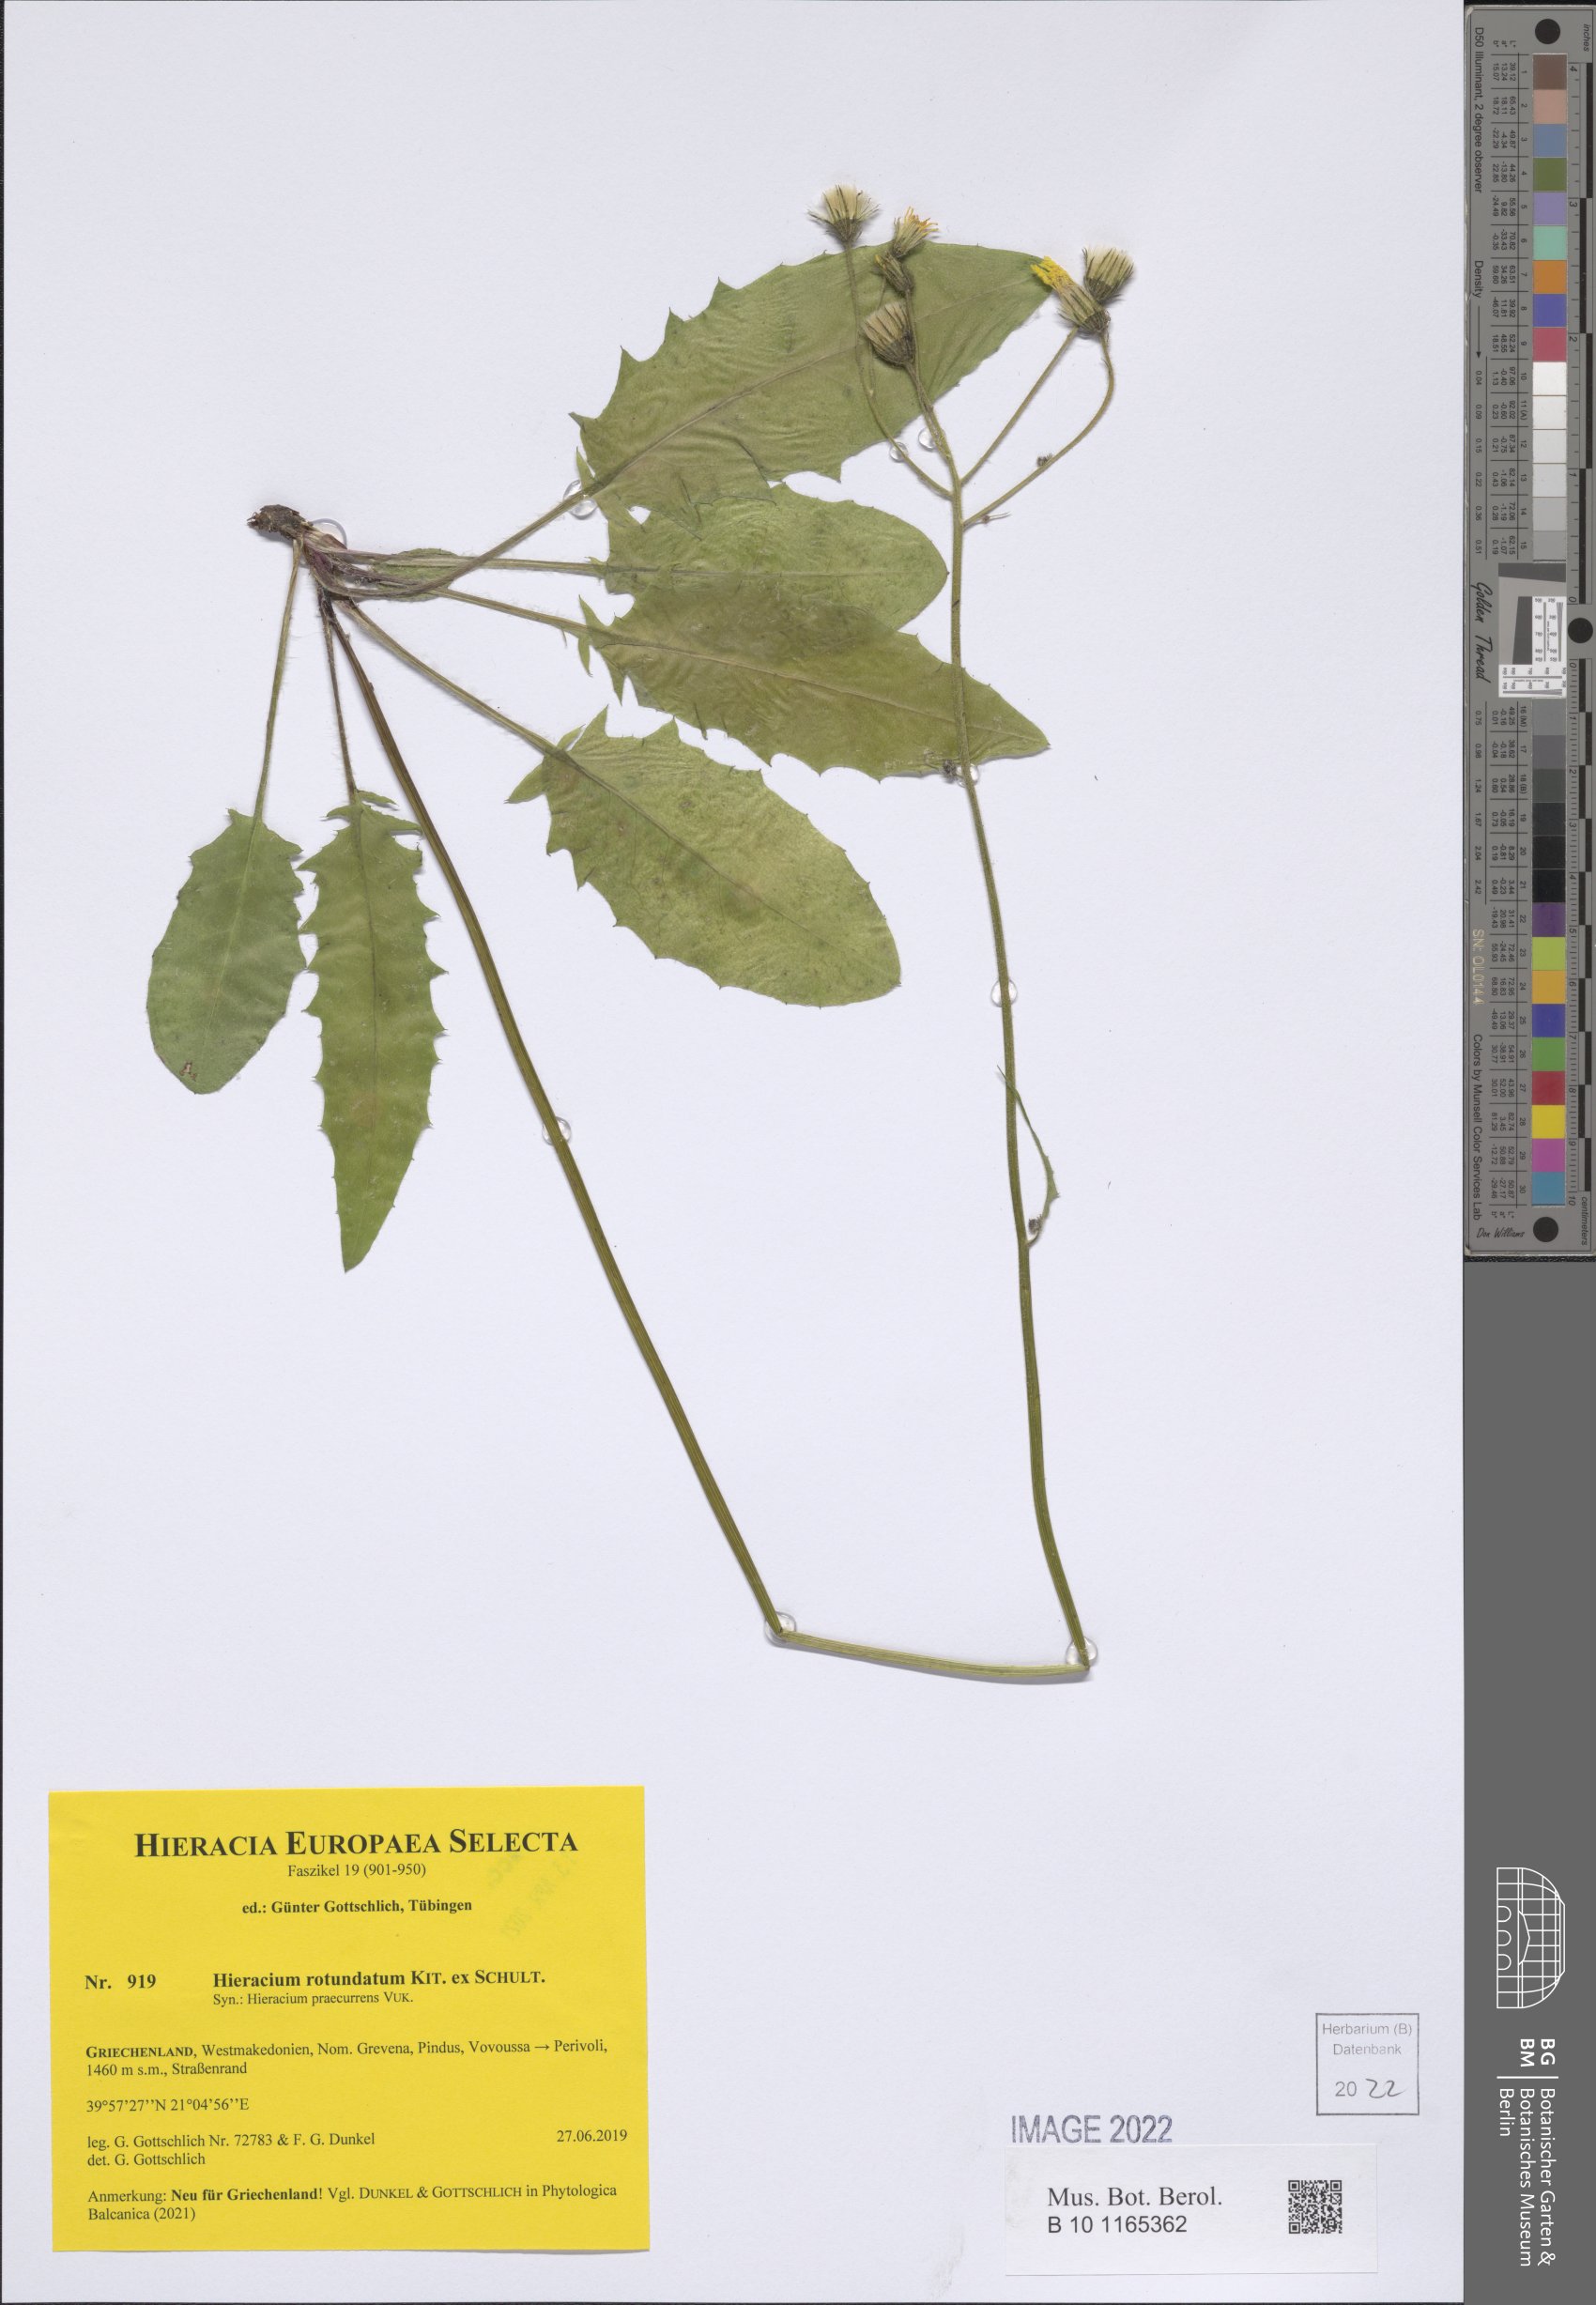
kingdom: Plantae
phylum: Tracheophyta
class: Magnoliopsida
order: Asterales
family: Asteraceae
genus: Hieracium
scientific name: Hieracium rotundatum
